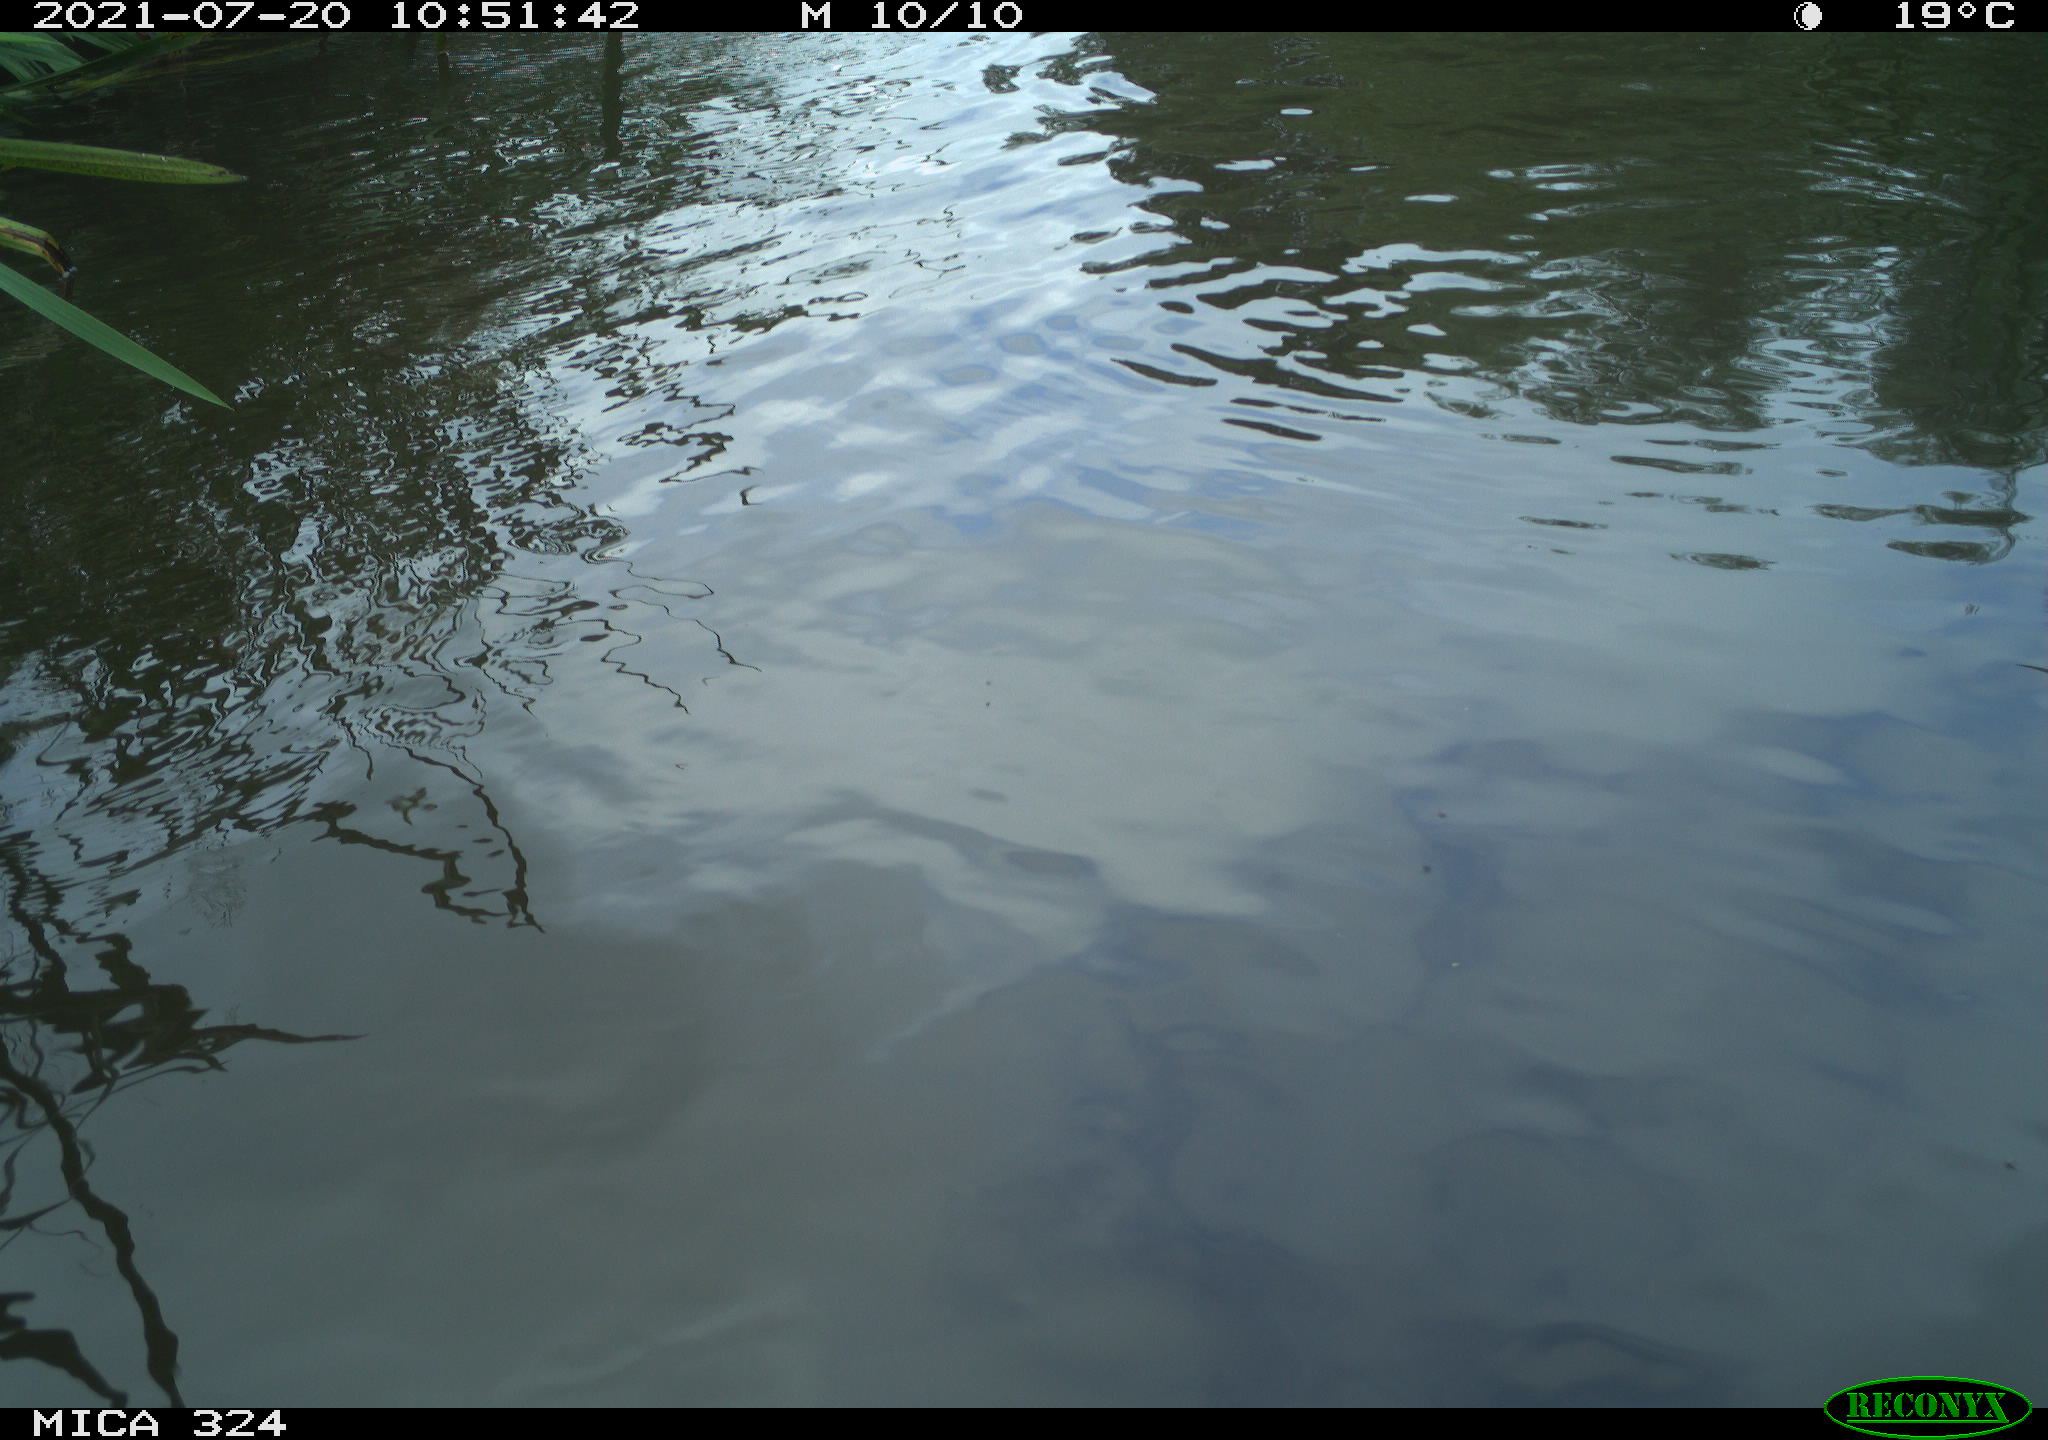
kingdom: Animalia
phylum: Chordata
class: Aves
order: Anseriformes
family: Anatidae
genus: Anas
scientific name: Anas platyrhynchos
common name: Mallard
